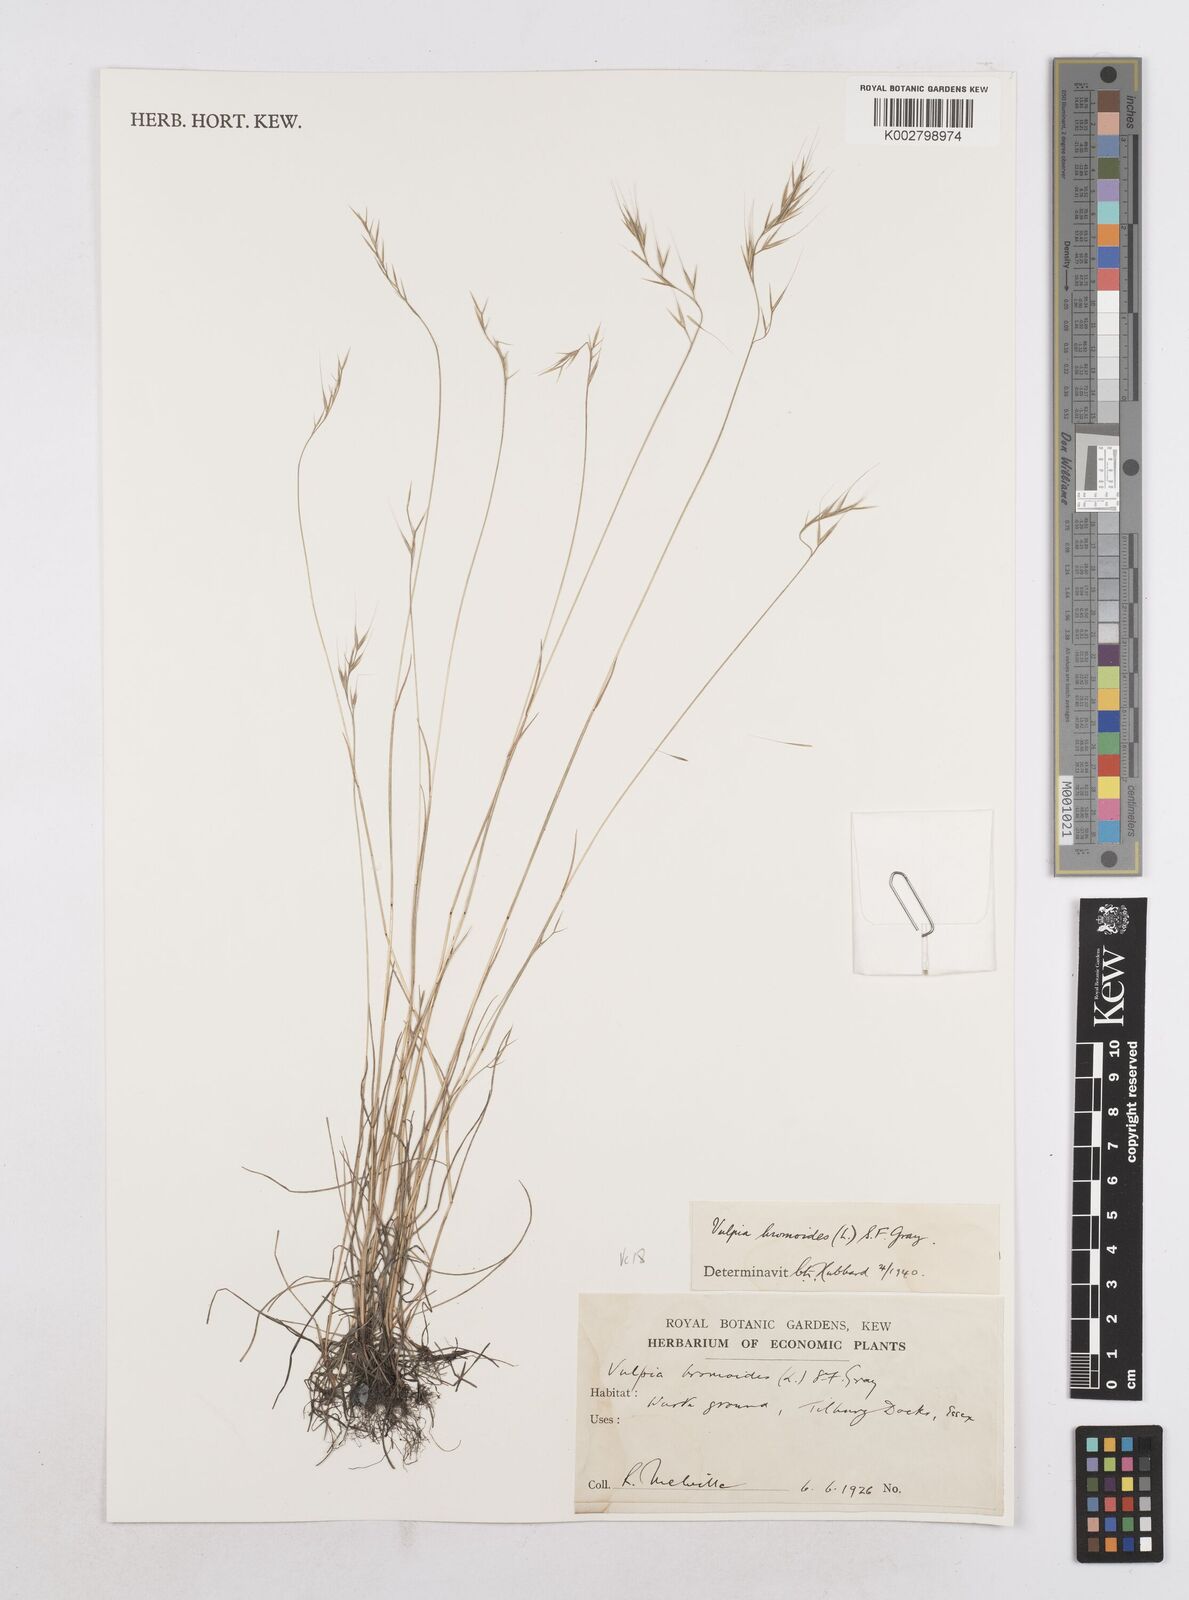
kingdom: Plantae
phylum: Tracheophyta
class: Liliopsida
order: Poales
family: Poaceae
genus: Festuca
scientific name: Festuca bromoides
